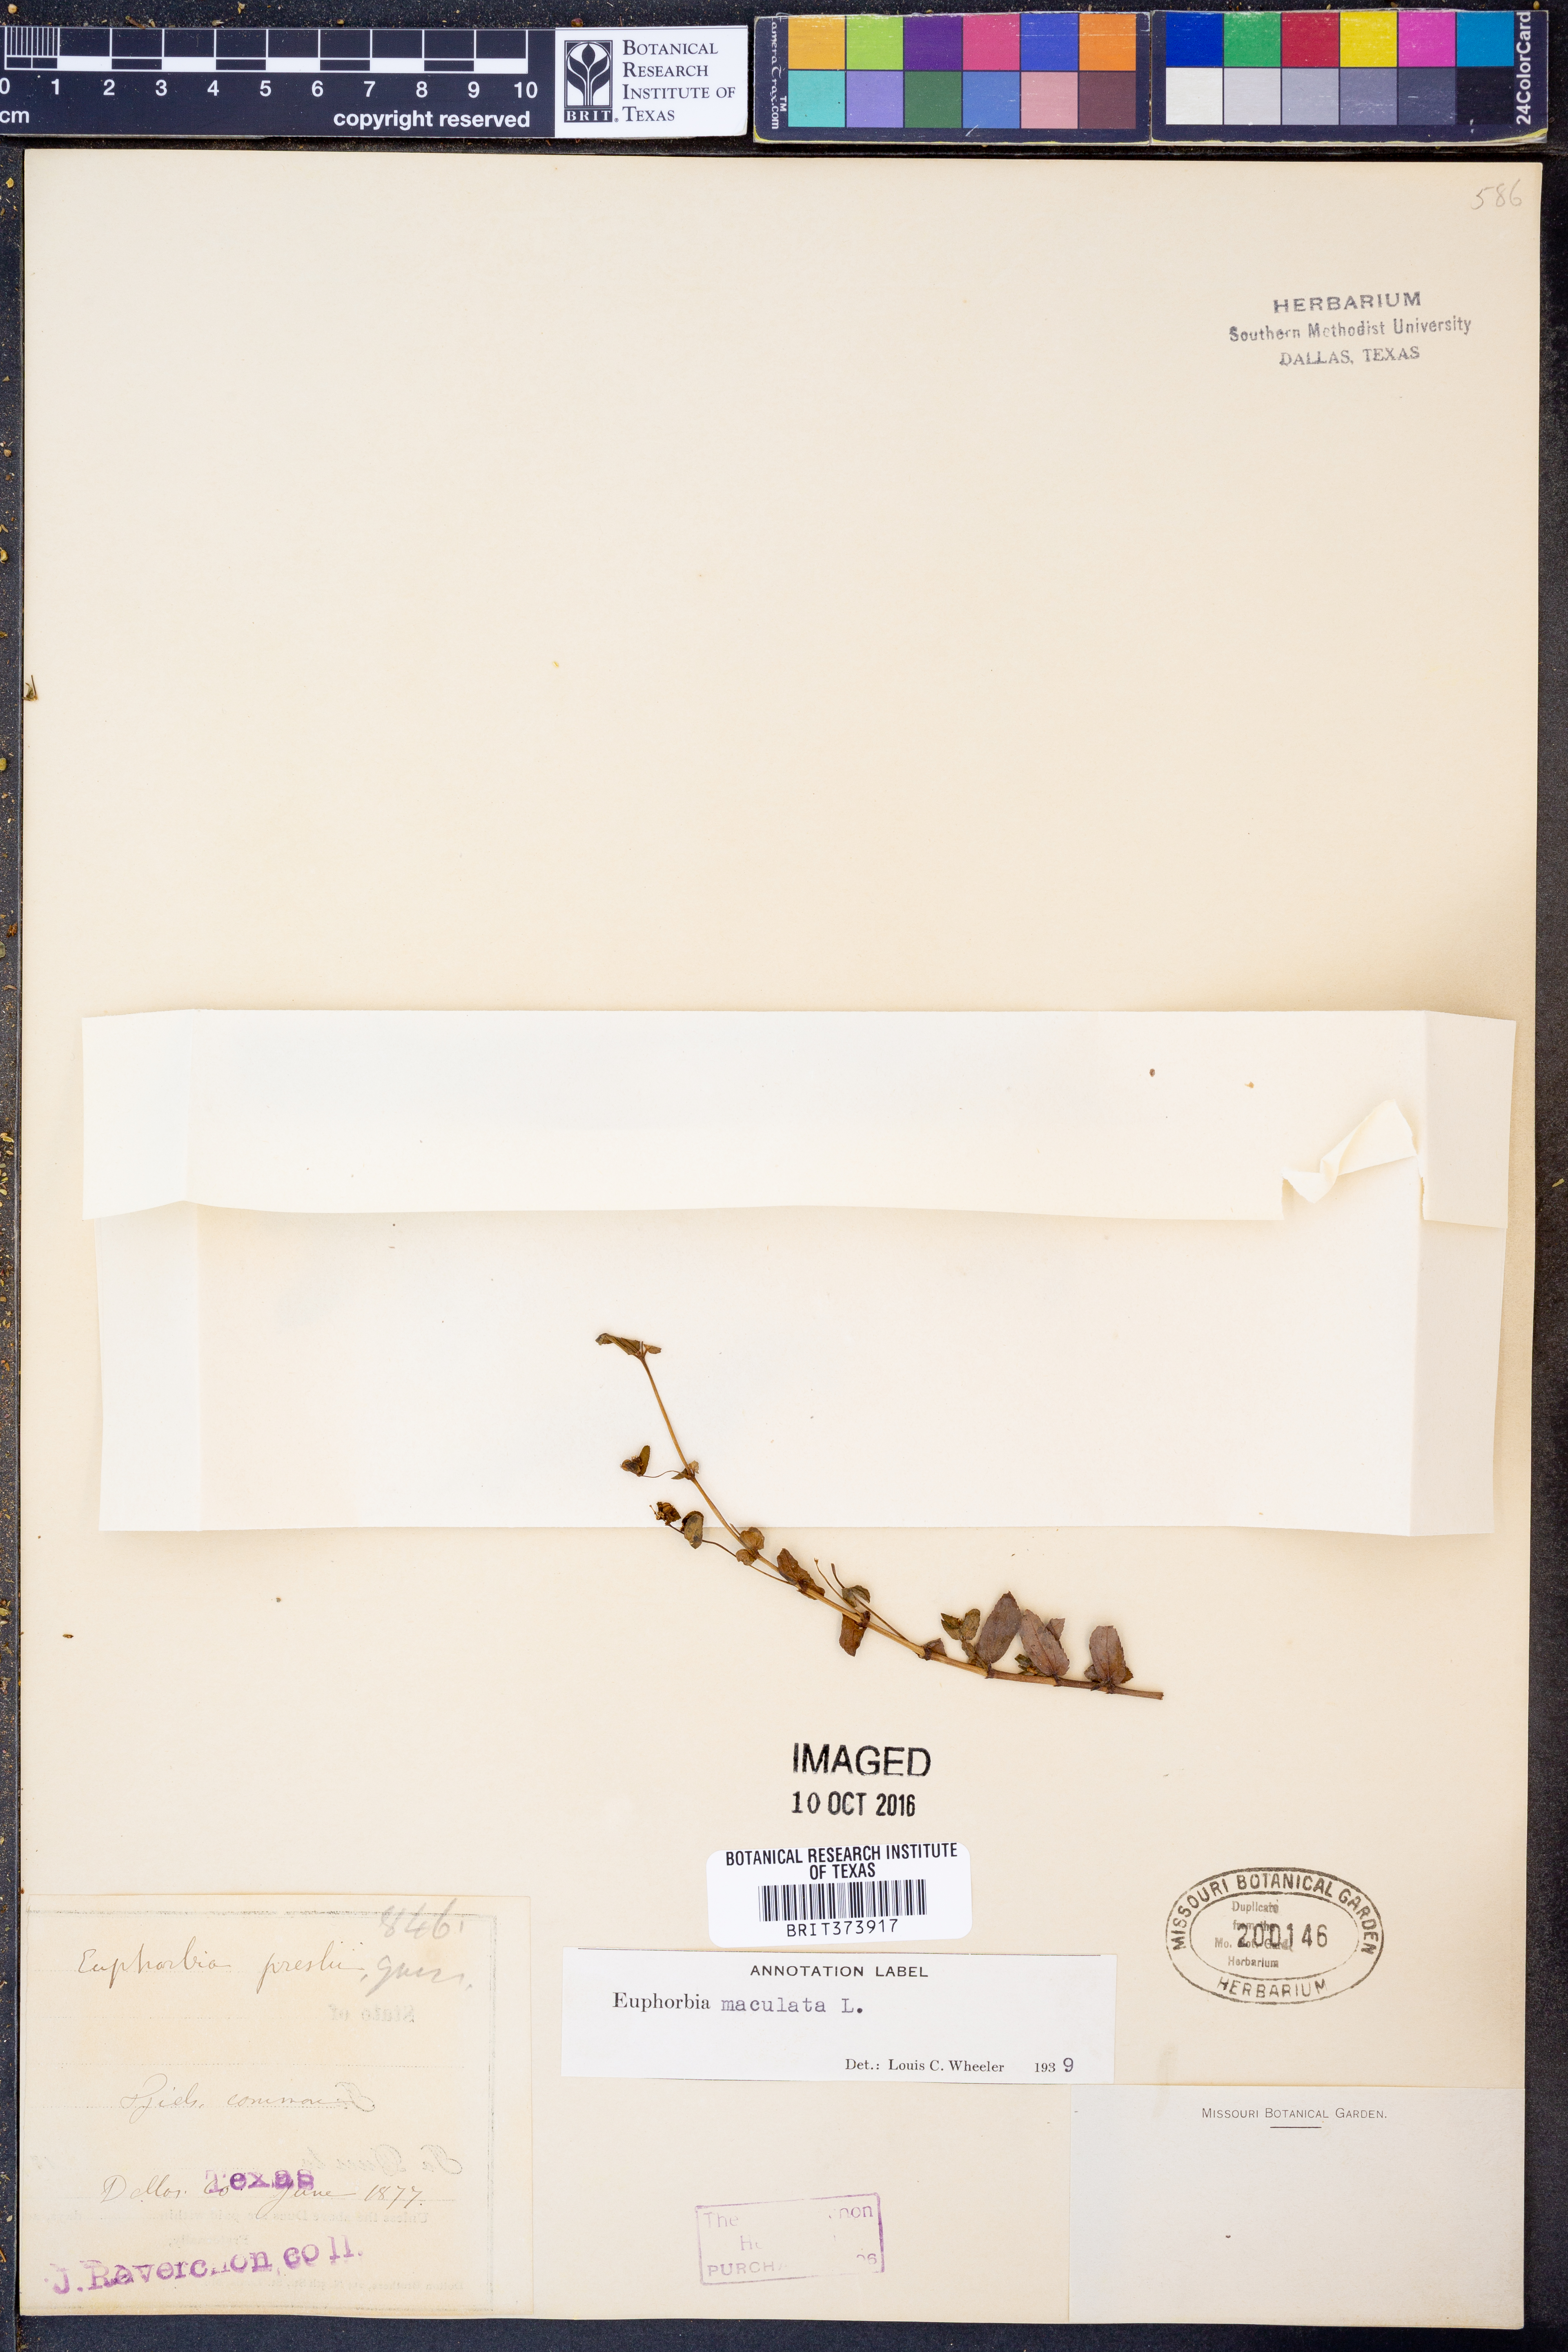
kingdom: Plantae
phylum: Tracheophyta
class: Magnoliopsida
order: Malpighiales
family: Euphorbiaceae
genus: Euphorbia
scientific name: Euphorbia maculata
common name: Spotted spurge
